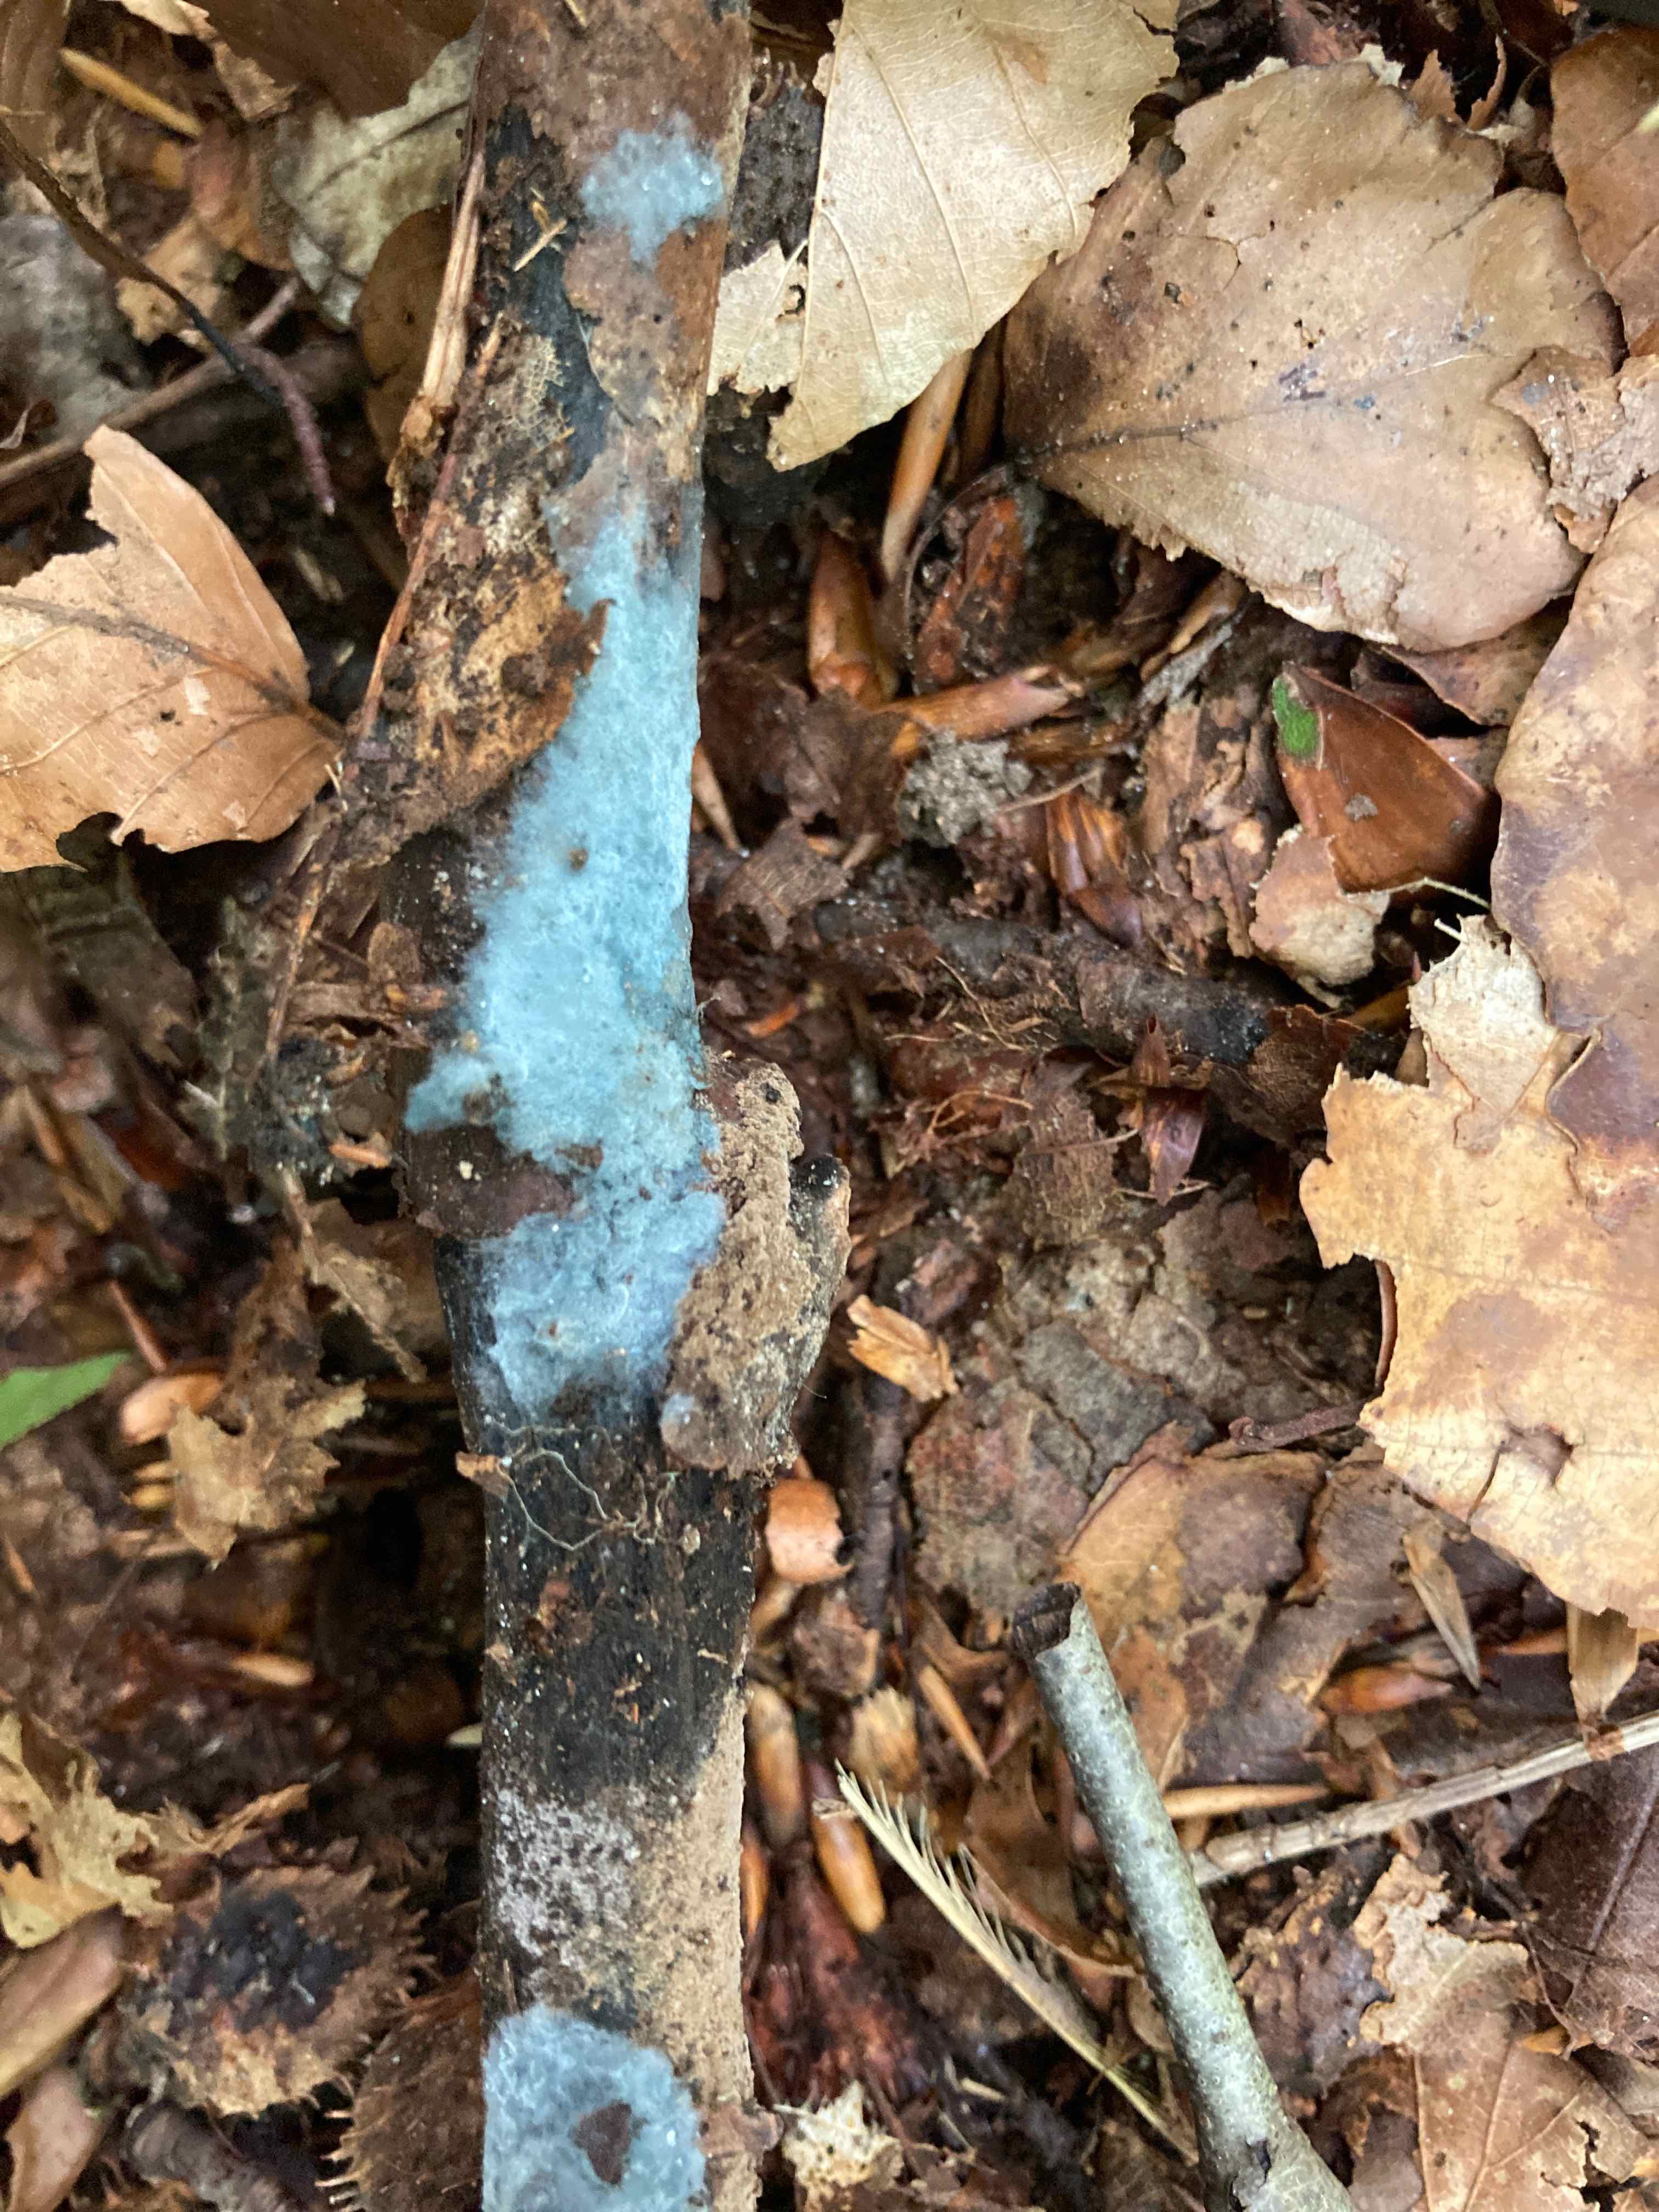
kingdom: Fungi
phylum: Basidiomycota
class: Agaricomycetes
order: Atheliales
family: Atheliaceae
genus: Byssocorticium
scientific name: Byssocorticium atrovirens
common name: blå førnehinde
